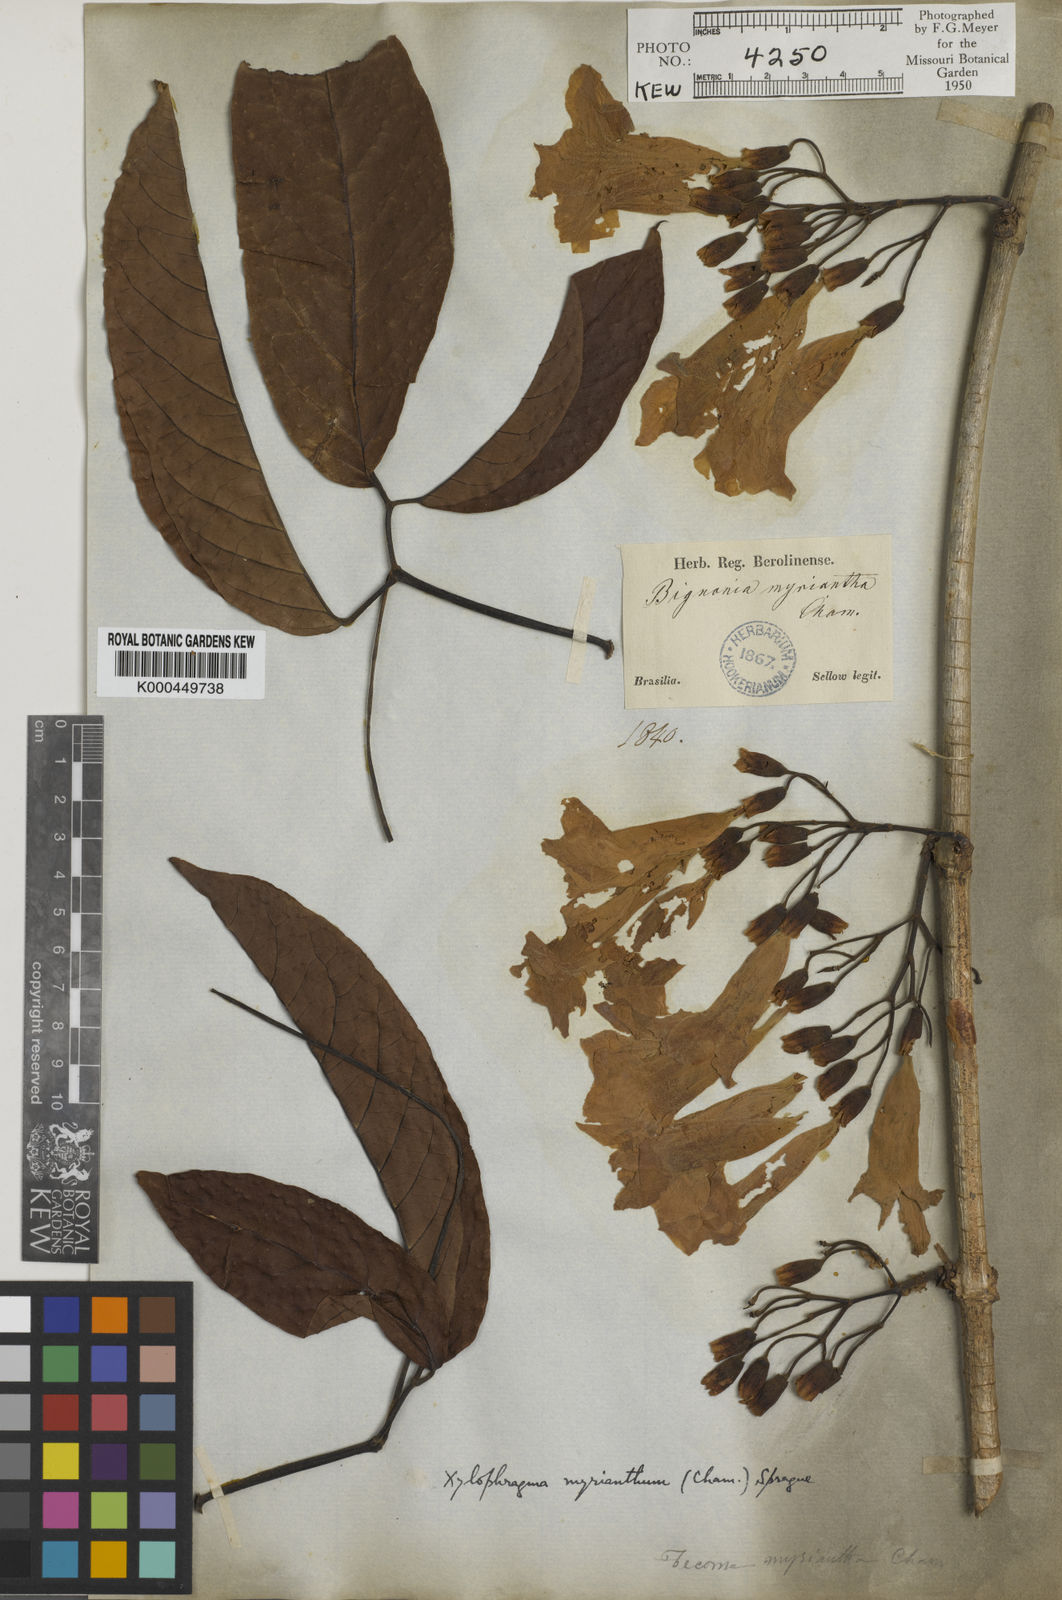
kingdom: Plantae
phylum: Tracheophyta
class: Magnoliopsida
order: Lamiales
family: Bignoniaceae
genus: Xylophragma
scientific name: Xylophragma myrianthum
